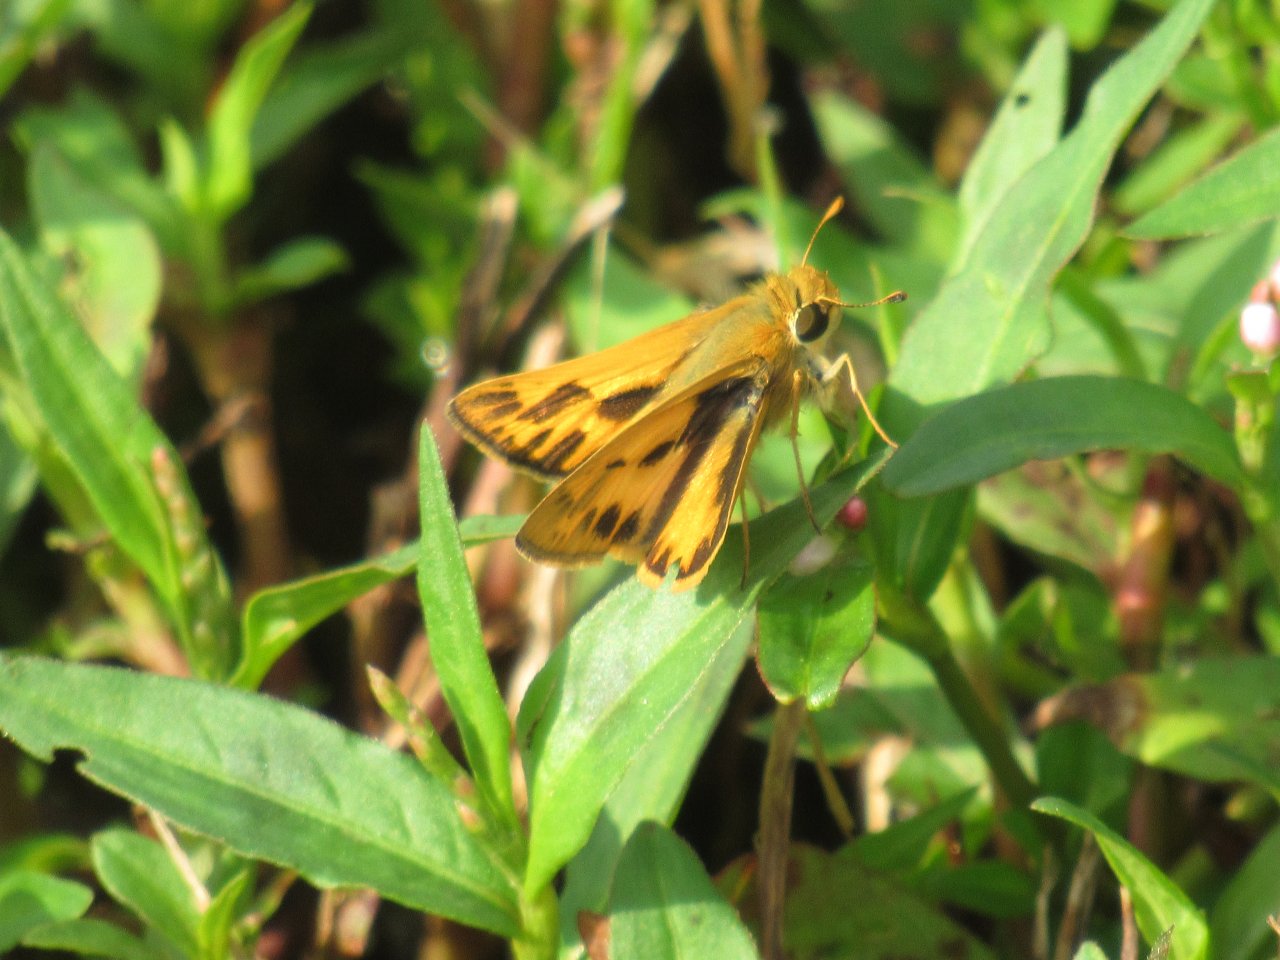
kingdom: Animalia
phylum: Arthropoda
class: Insecta
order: Lepidoptera
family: Hesperiidae
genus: Hylephila
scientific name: Hylephila phyleus
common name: Fiery Skipper
